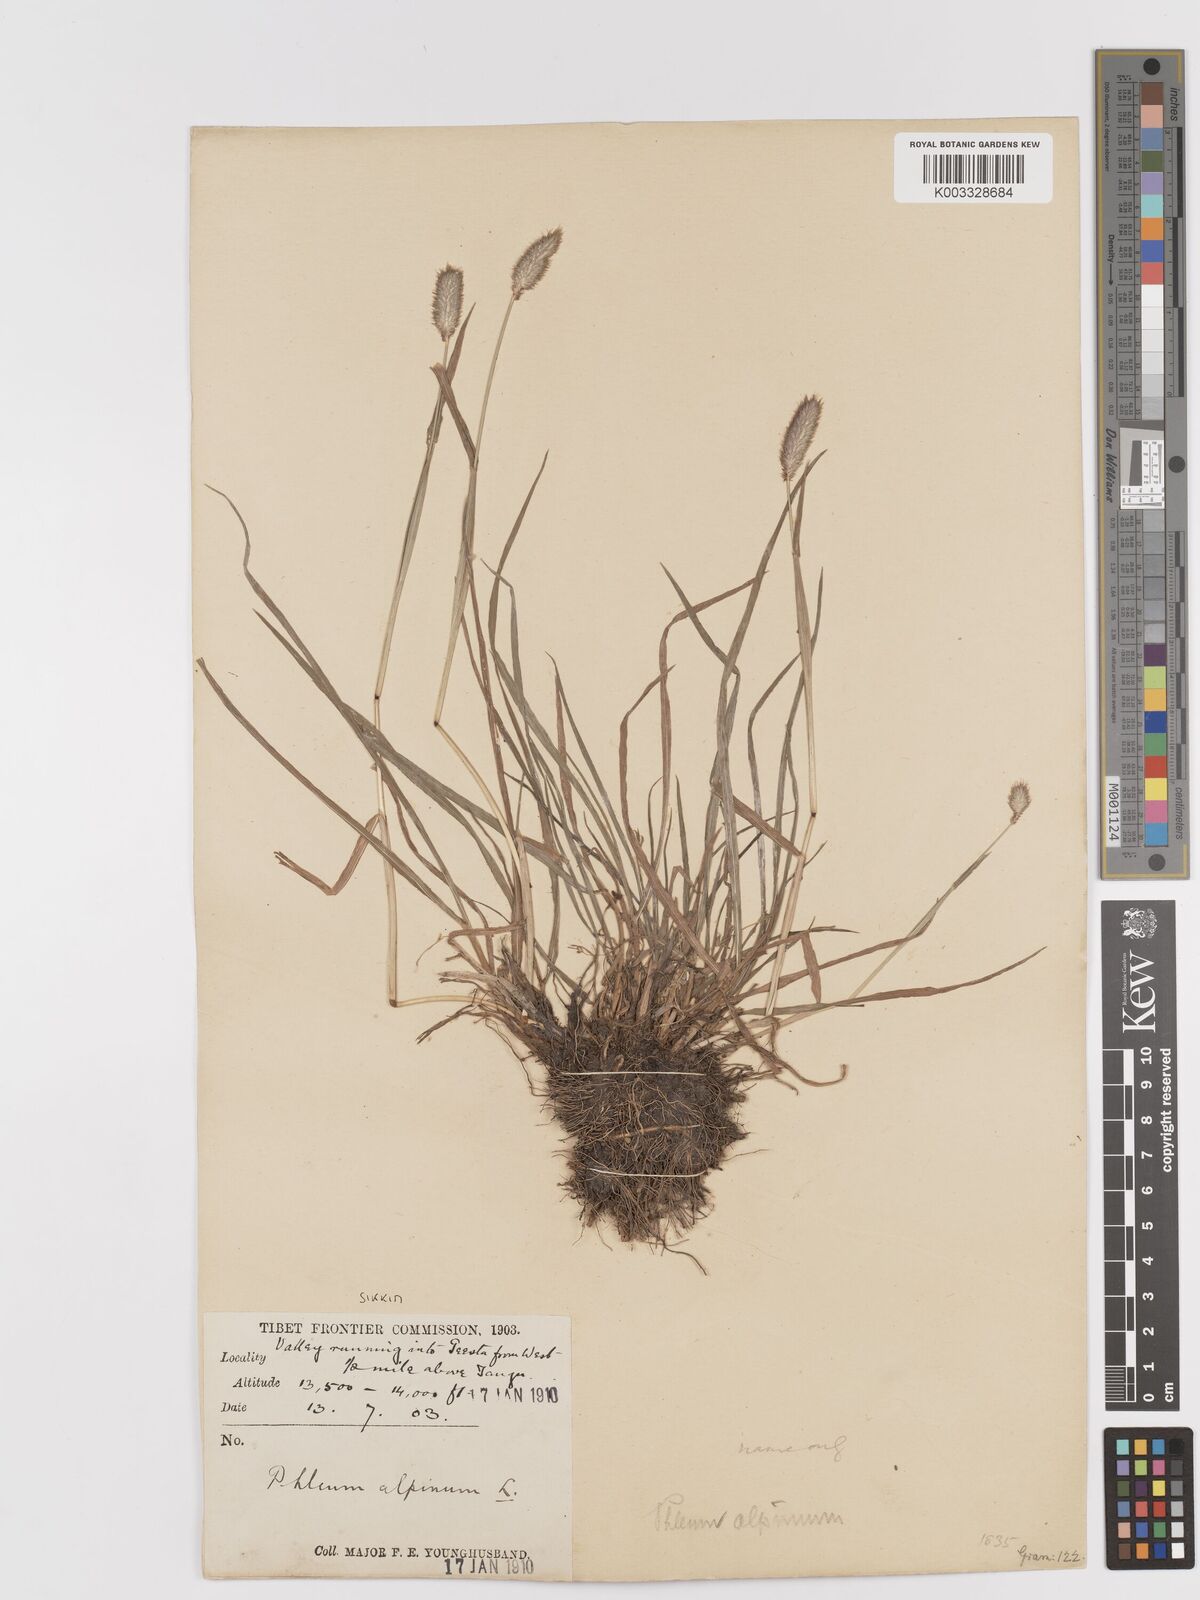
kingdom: Plantae
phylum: Tracheophyta
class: Liliopsida
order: Poales
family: Poaceae
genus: Phleum
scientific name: Phleum alpinum
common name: Alpine cat's-tail
